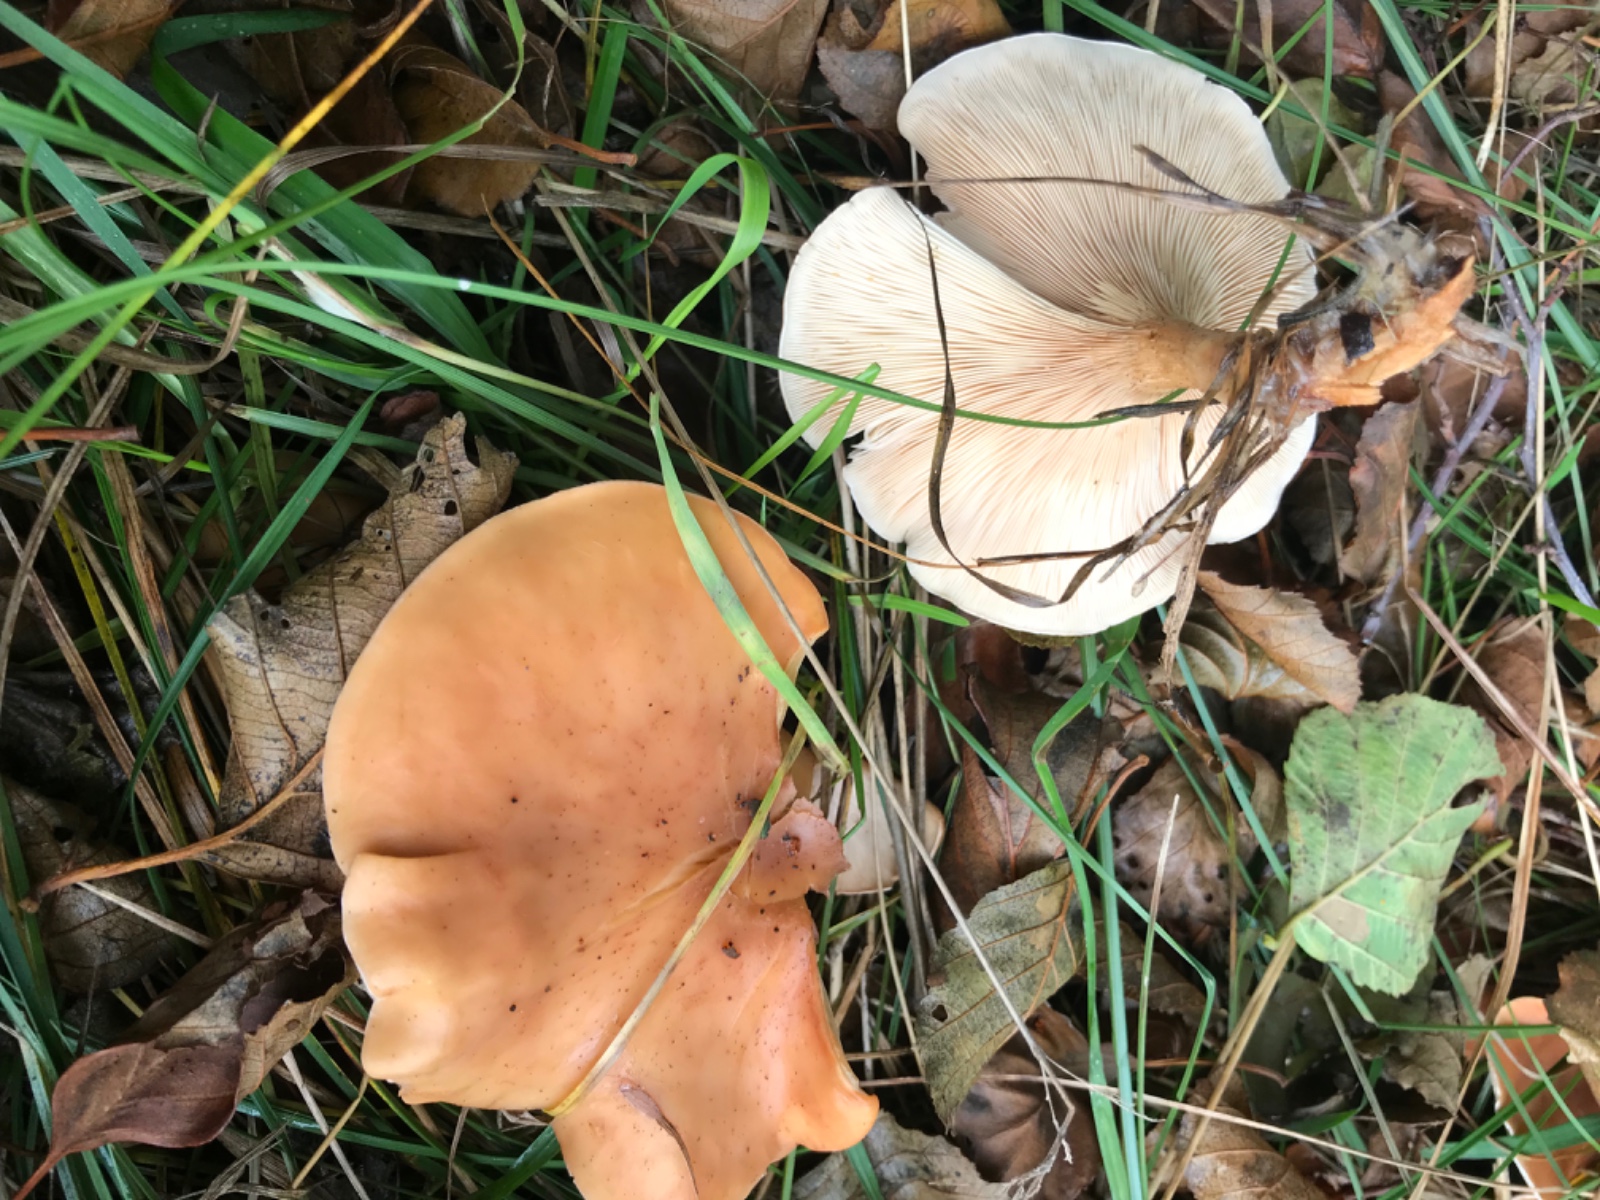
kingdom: Fungi
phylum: Basidiomycota
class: Agaricomycetes
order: Agaricales
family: Tricholomataceae
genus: Paralepista
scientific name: Paralepista flaccida
